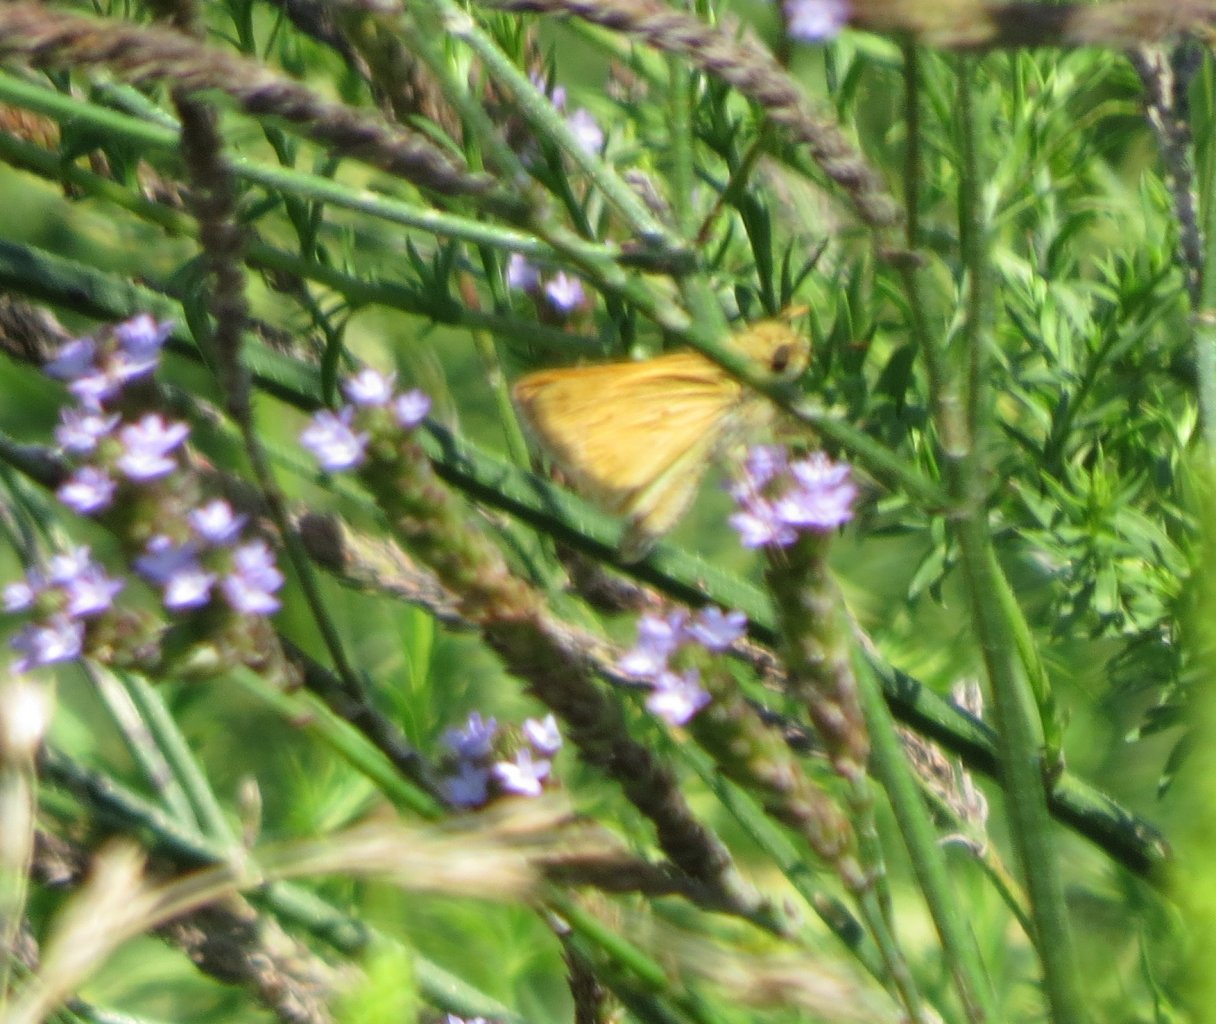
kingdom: Animalia
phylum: Arthropoda
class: Insecta
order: Lepidoptera
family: Hesperiidae
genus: Atalopedes
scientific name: Atalopedes campestris
